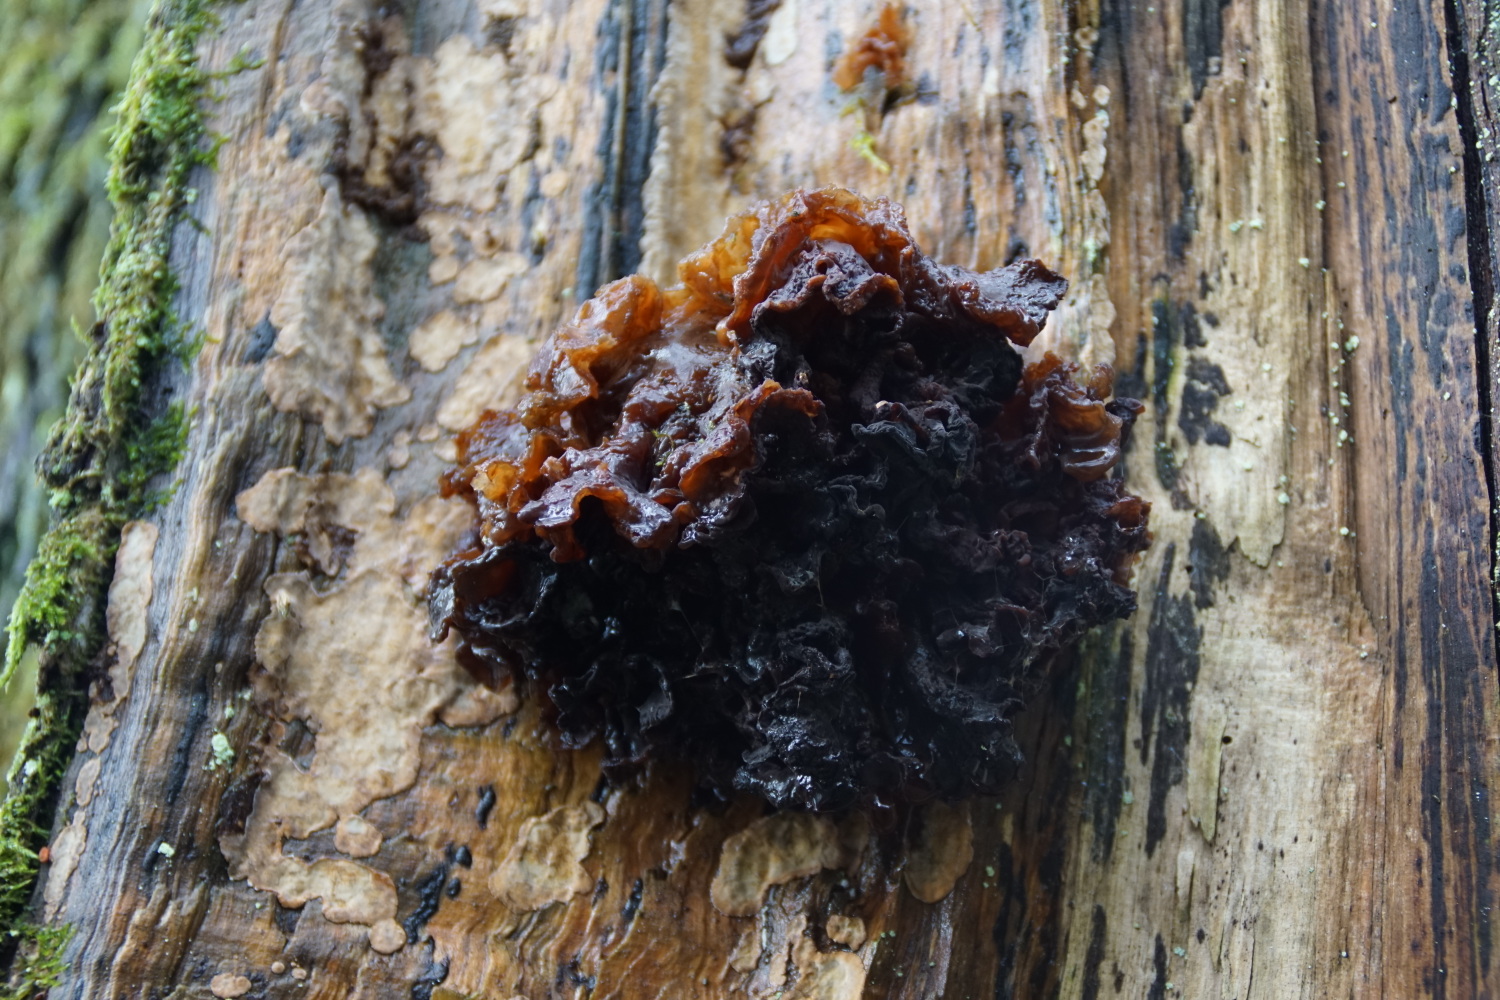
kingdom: Fungi
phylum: Basidiomycota
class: Tremellomycetes
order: Tremellales
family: Tremellaceae
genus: Phaeotremella
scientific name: Phaeotremella frondosa
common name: kæmpe-bævresvamp
